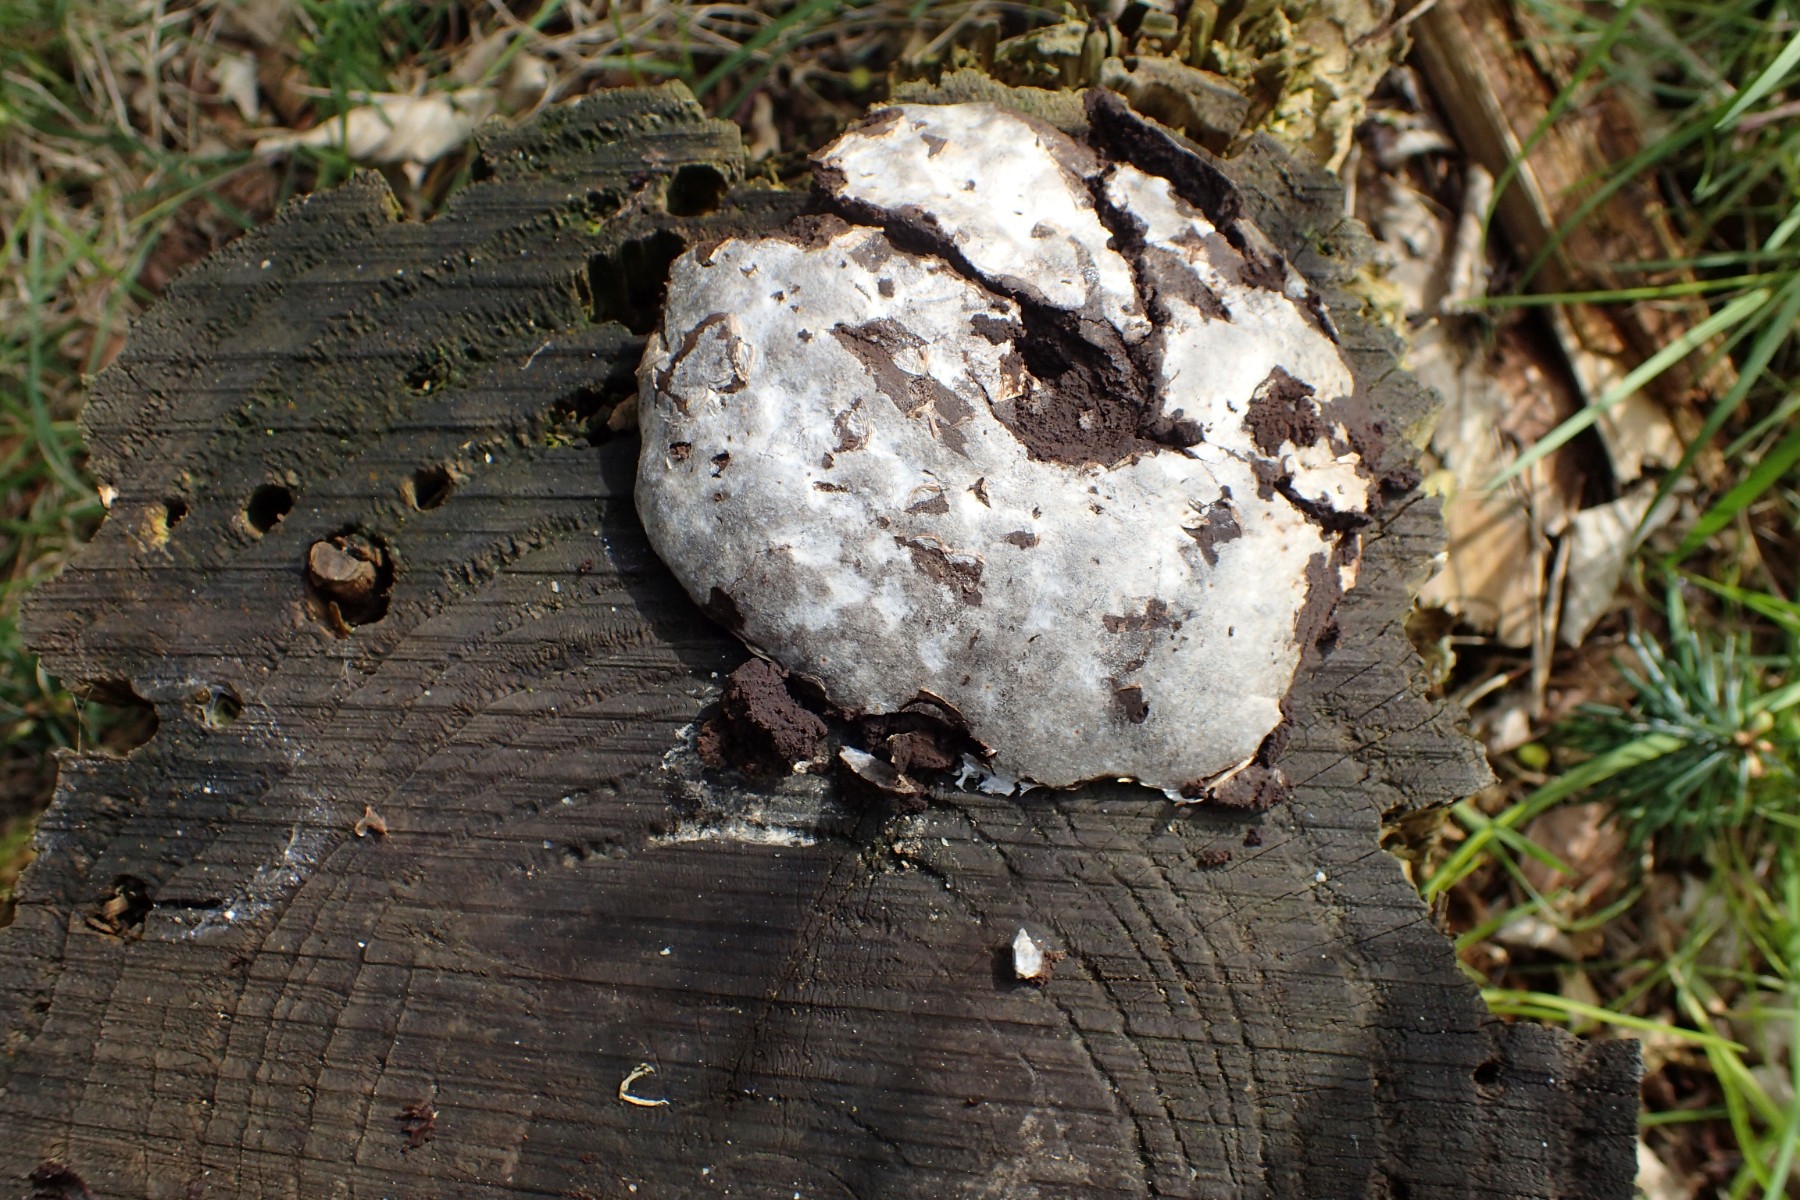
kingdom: Protozoa
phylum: Mycetozoa
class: Myxomycetes
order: Cribrariales
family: Tubiferaceae
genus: Reticularia
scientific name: Reticularia lycoperdon
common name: skinnende støvpude
